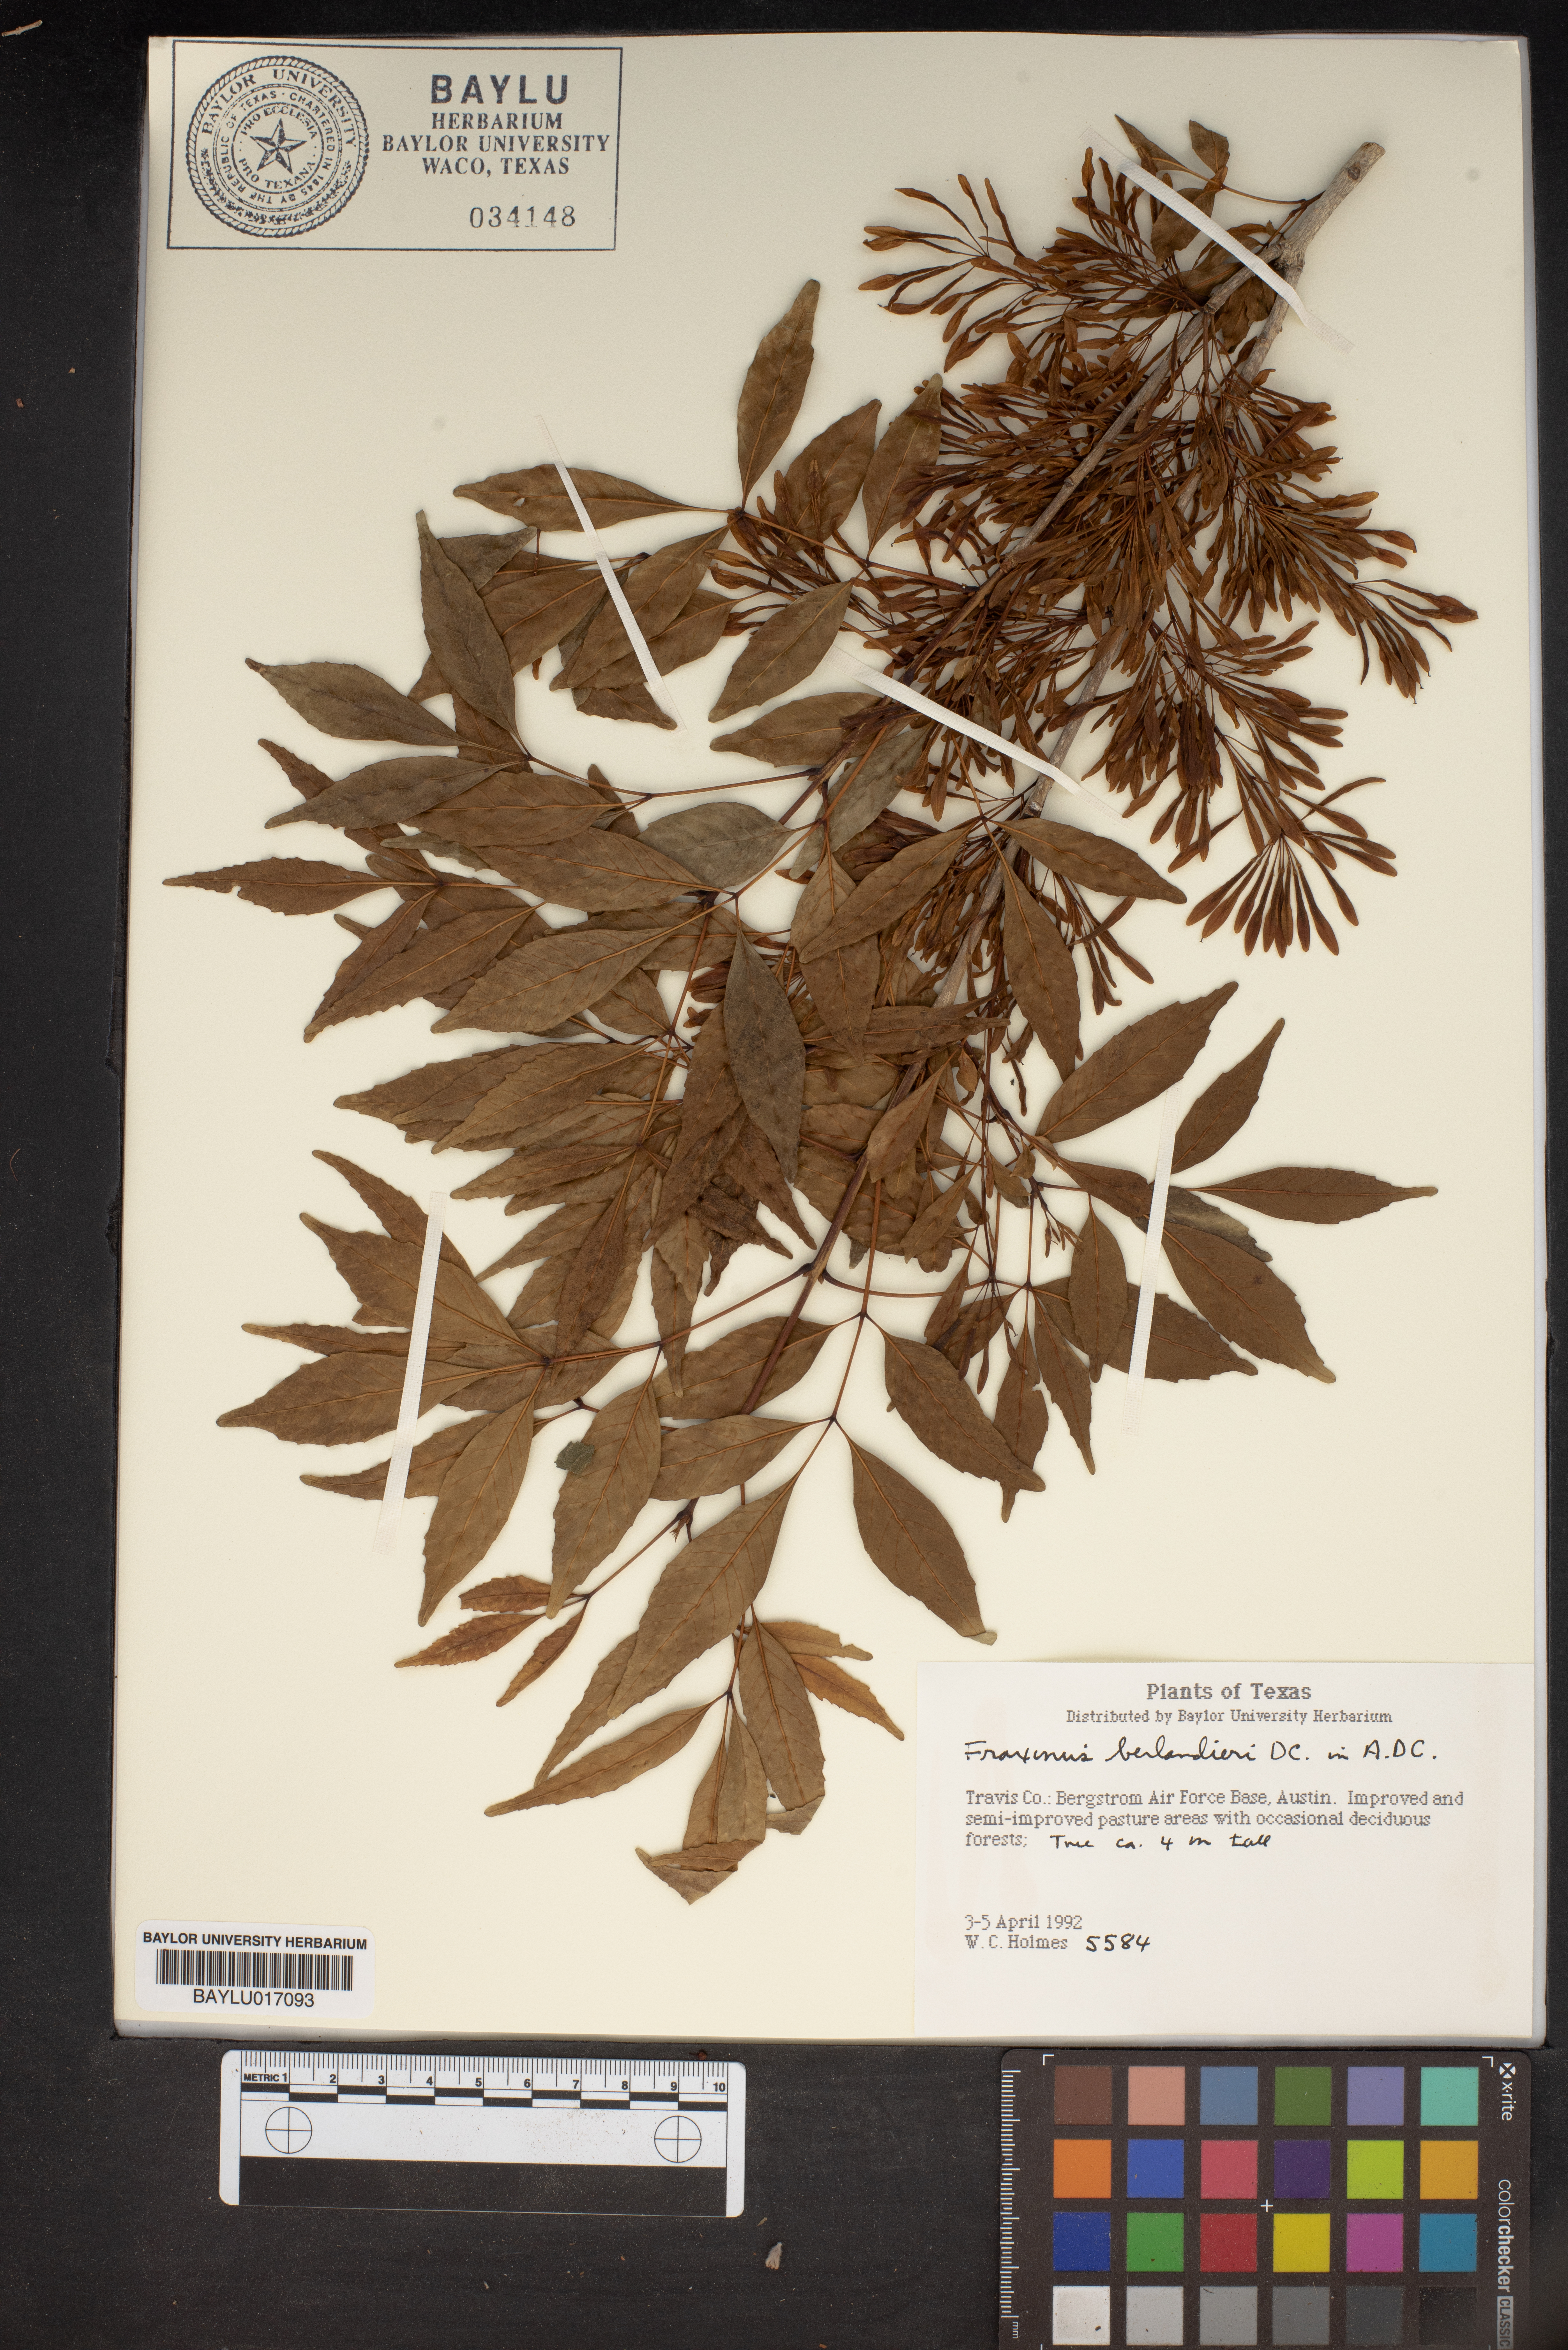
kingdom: Plantae
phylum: Tracheophyta
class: Magnoliopsida
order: Lamiales
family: Oleaceae
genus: Fraxinus
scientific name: Fraxinus berlandieriana
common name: Berlandier ash
